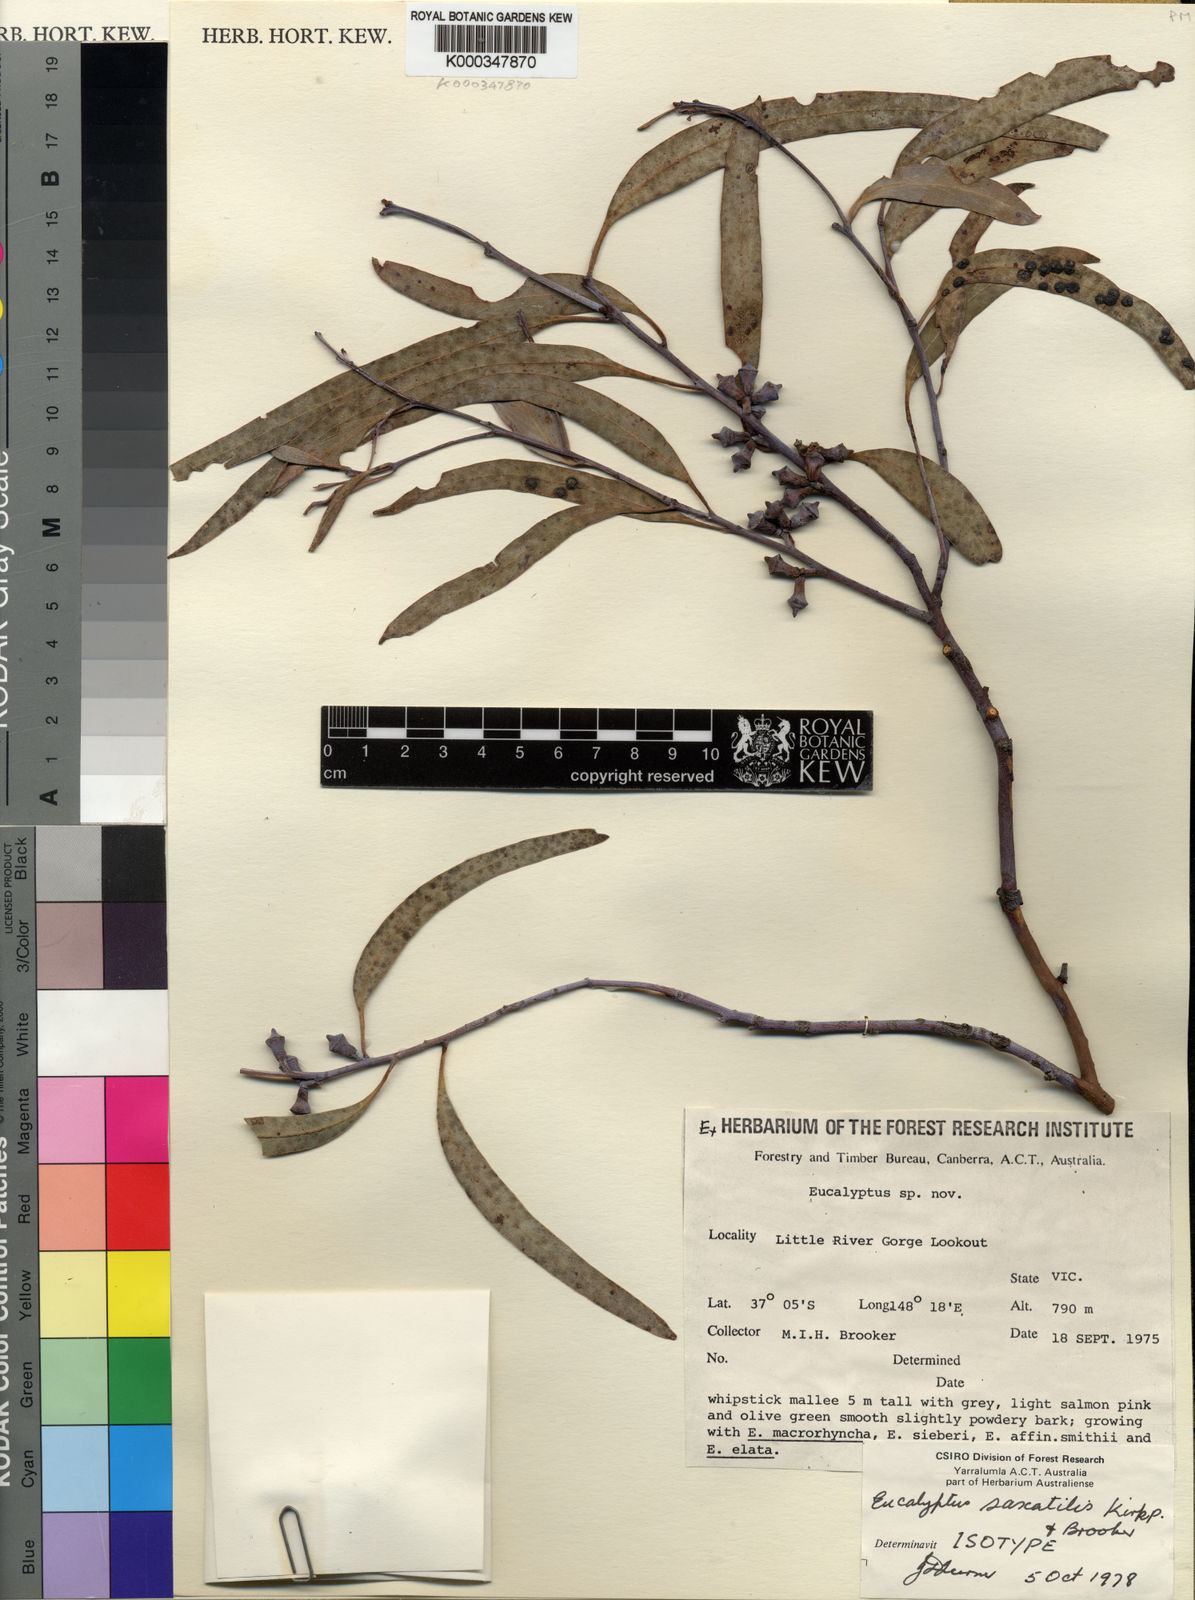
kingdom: Plantae
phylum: Tracheophyta
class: Magnoliopsida
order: Myrtales
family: Myrtaceae
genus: Eucalyptus
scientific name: Eucalyptus saxatilis
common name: Mt wheelan mallee
